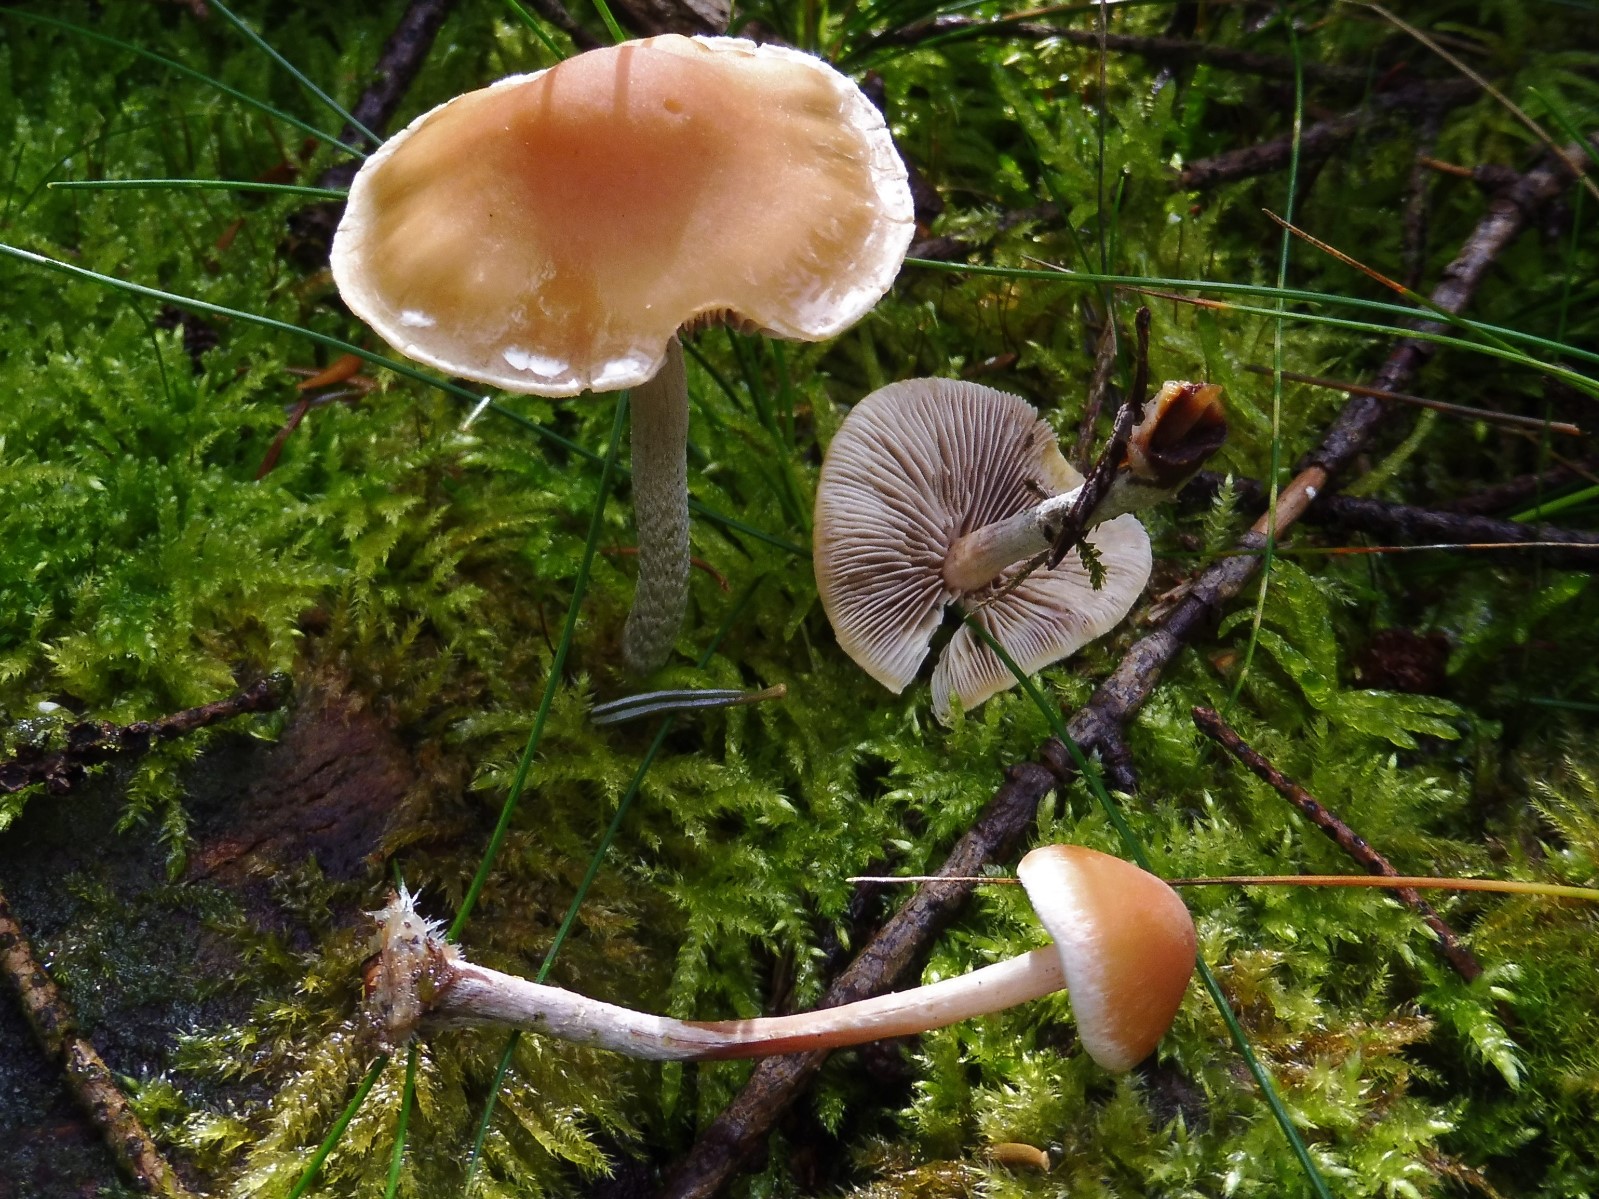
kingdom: Fungi
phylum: Basidiomycota
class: Agaricomycetes
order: Agaricales
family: Strophariaceae
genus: Hypholoma
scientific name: Hypholoma marginatum
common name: enlig svovlhat
